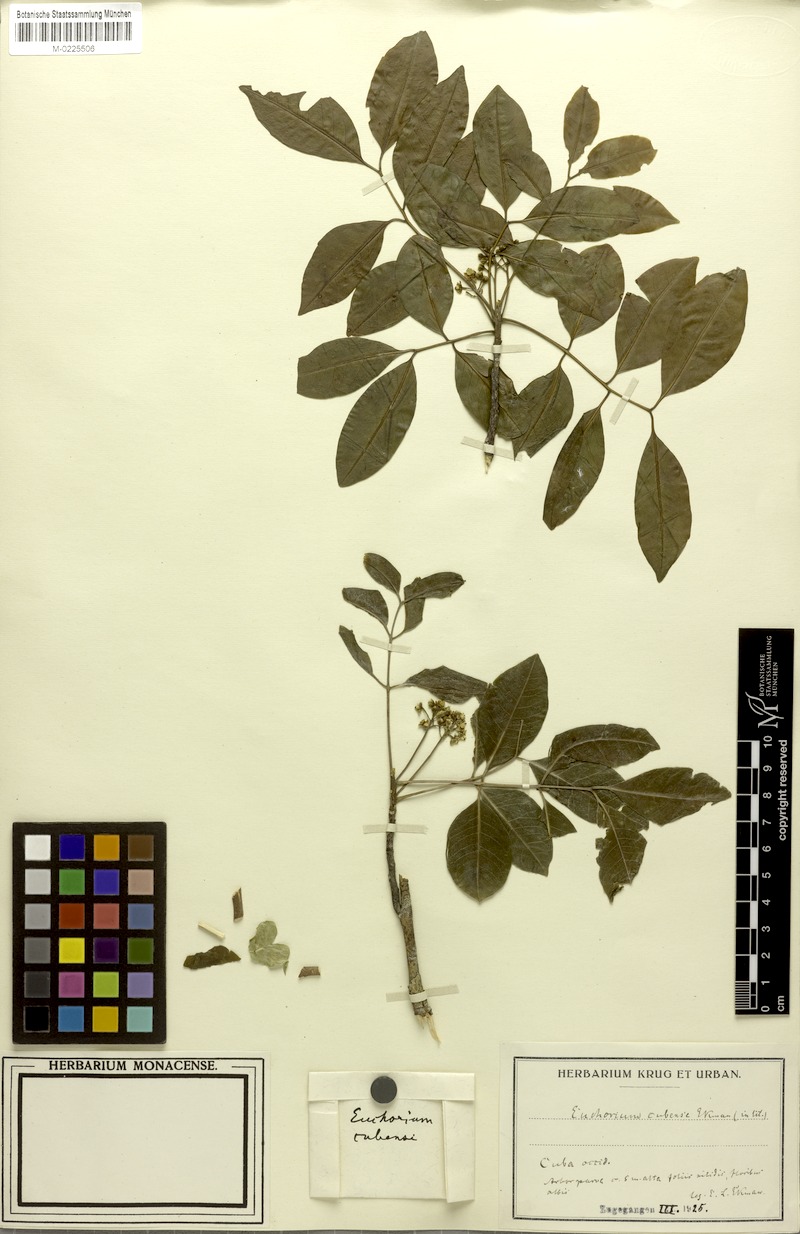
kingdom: Plantae
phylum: Tracheophyta
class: Magnoliopsida
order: Sapindales
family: Sapindaceae
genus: Euchorium
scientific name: Euchorium cubense
